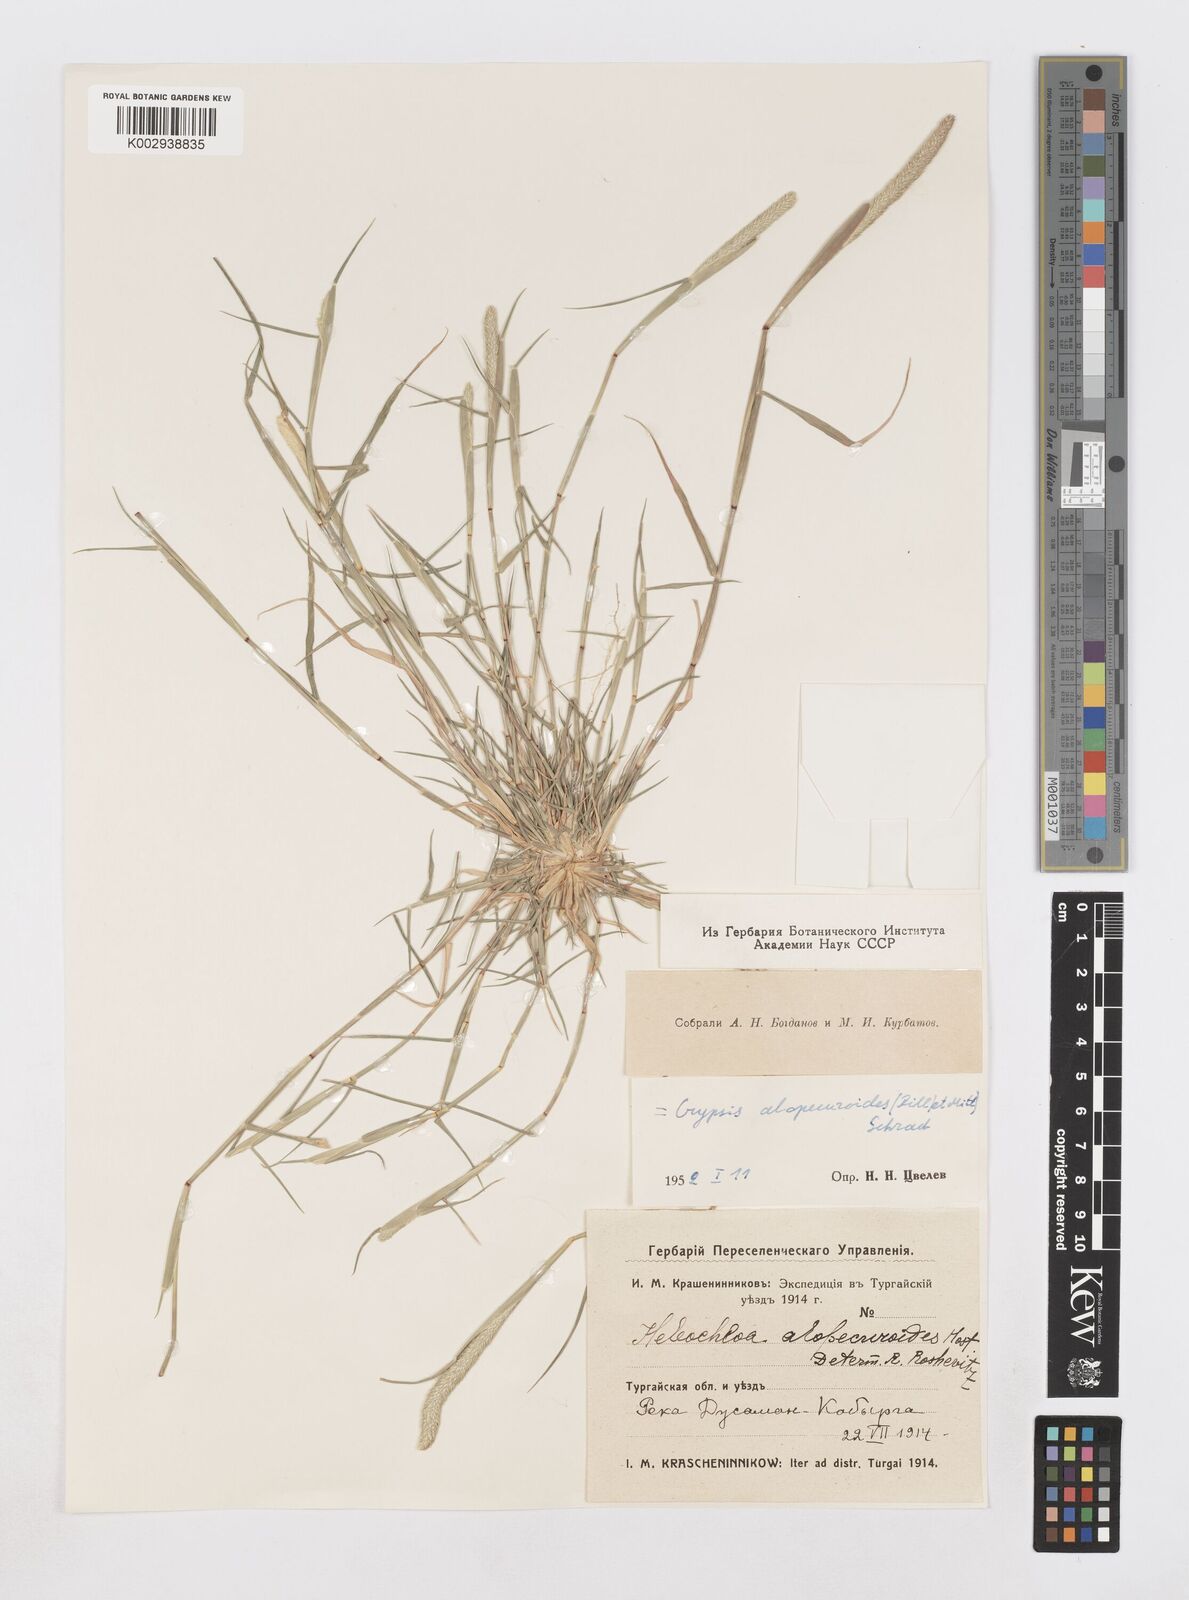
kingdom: Plantae
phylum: Tracheophyta
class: Liliopsida
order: Poales
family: Poaceae
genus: Sporobolus
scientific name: Sporobolus alopecuroides
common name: Foxtail pricklegrass
